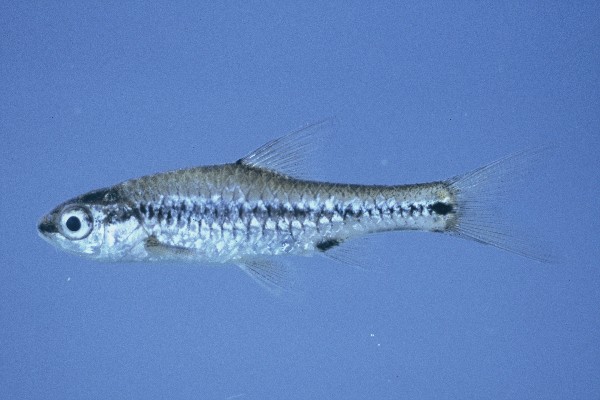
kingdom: Animalia
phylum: Chordata
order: Cypriniformes
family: Cyprinidae
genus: Enteromius
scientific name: Enteromius macrotaenia
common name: Broadband barb
